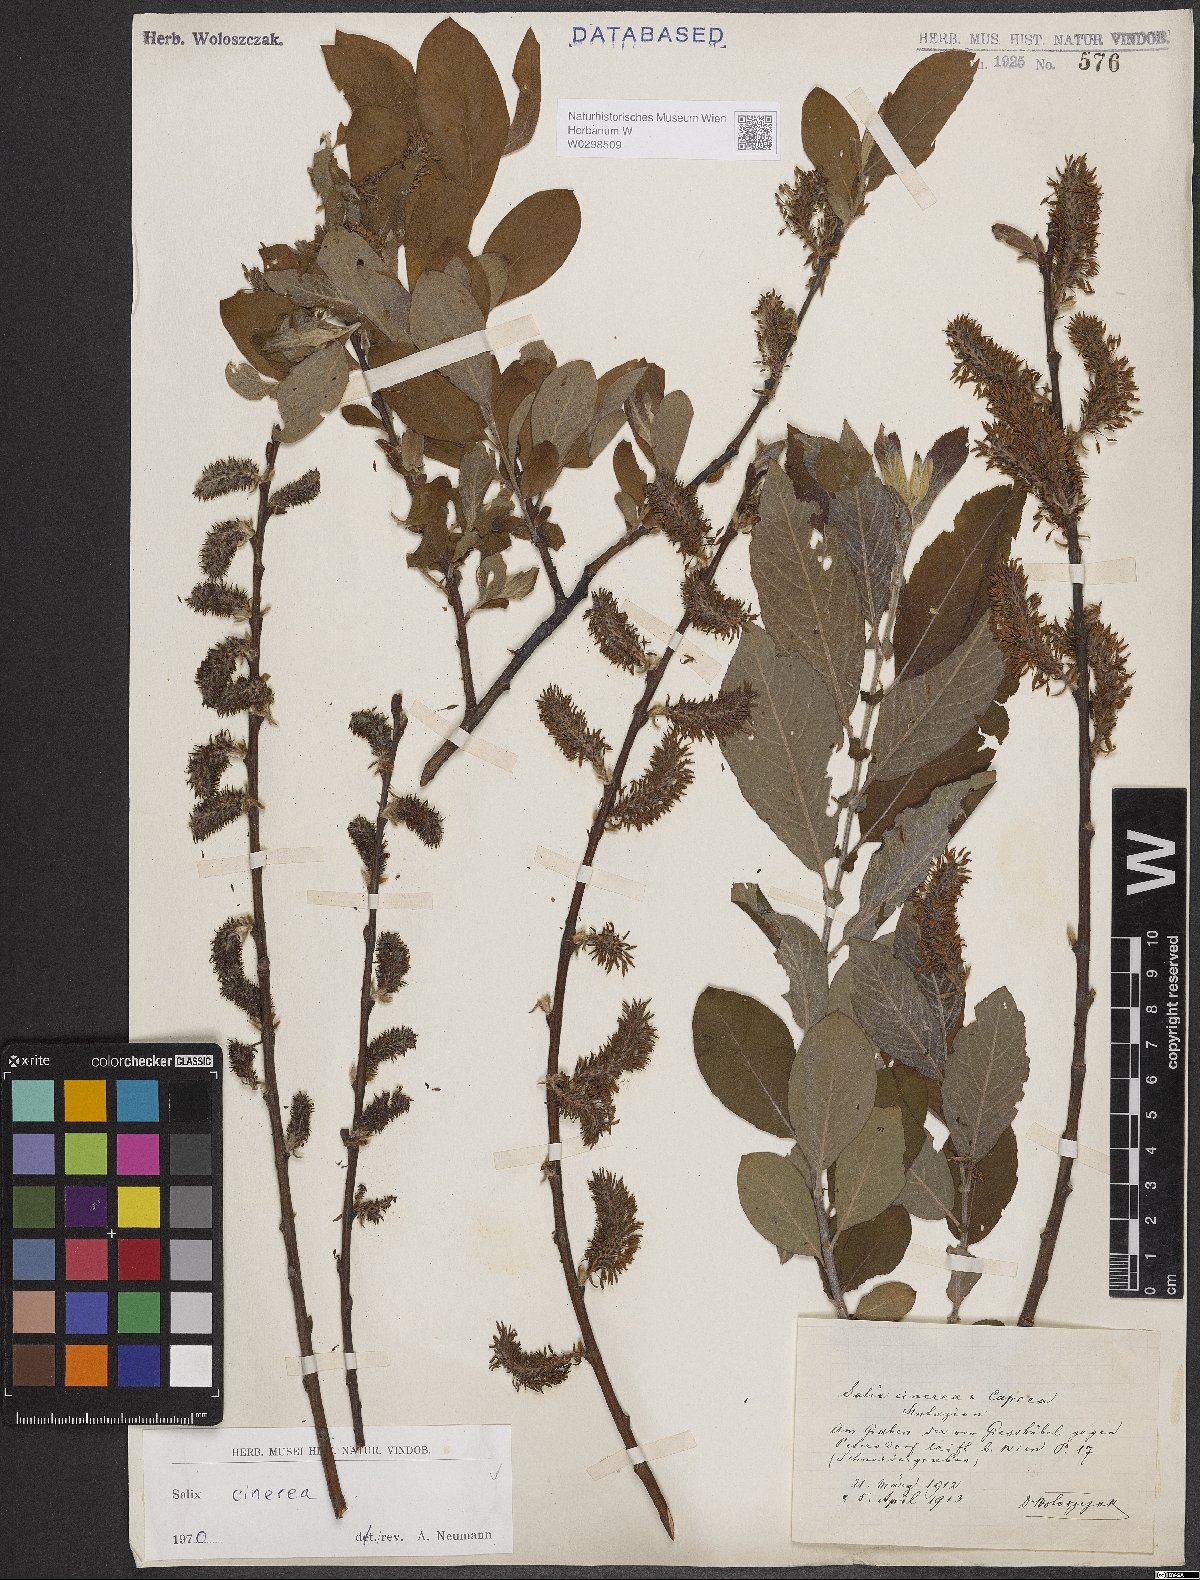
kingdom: Plantae
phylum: Tracheophyta
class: Magnoliopsida
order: Malpighiales
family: Salicaceae
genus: Salix
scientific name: Salix cinerea
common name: Common sallow
